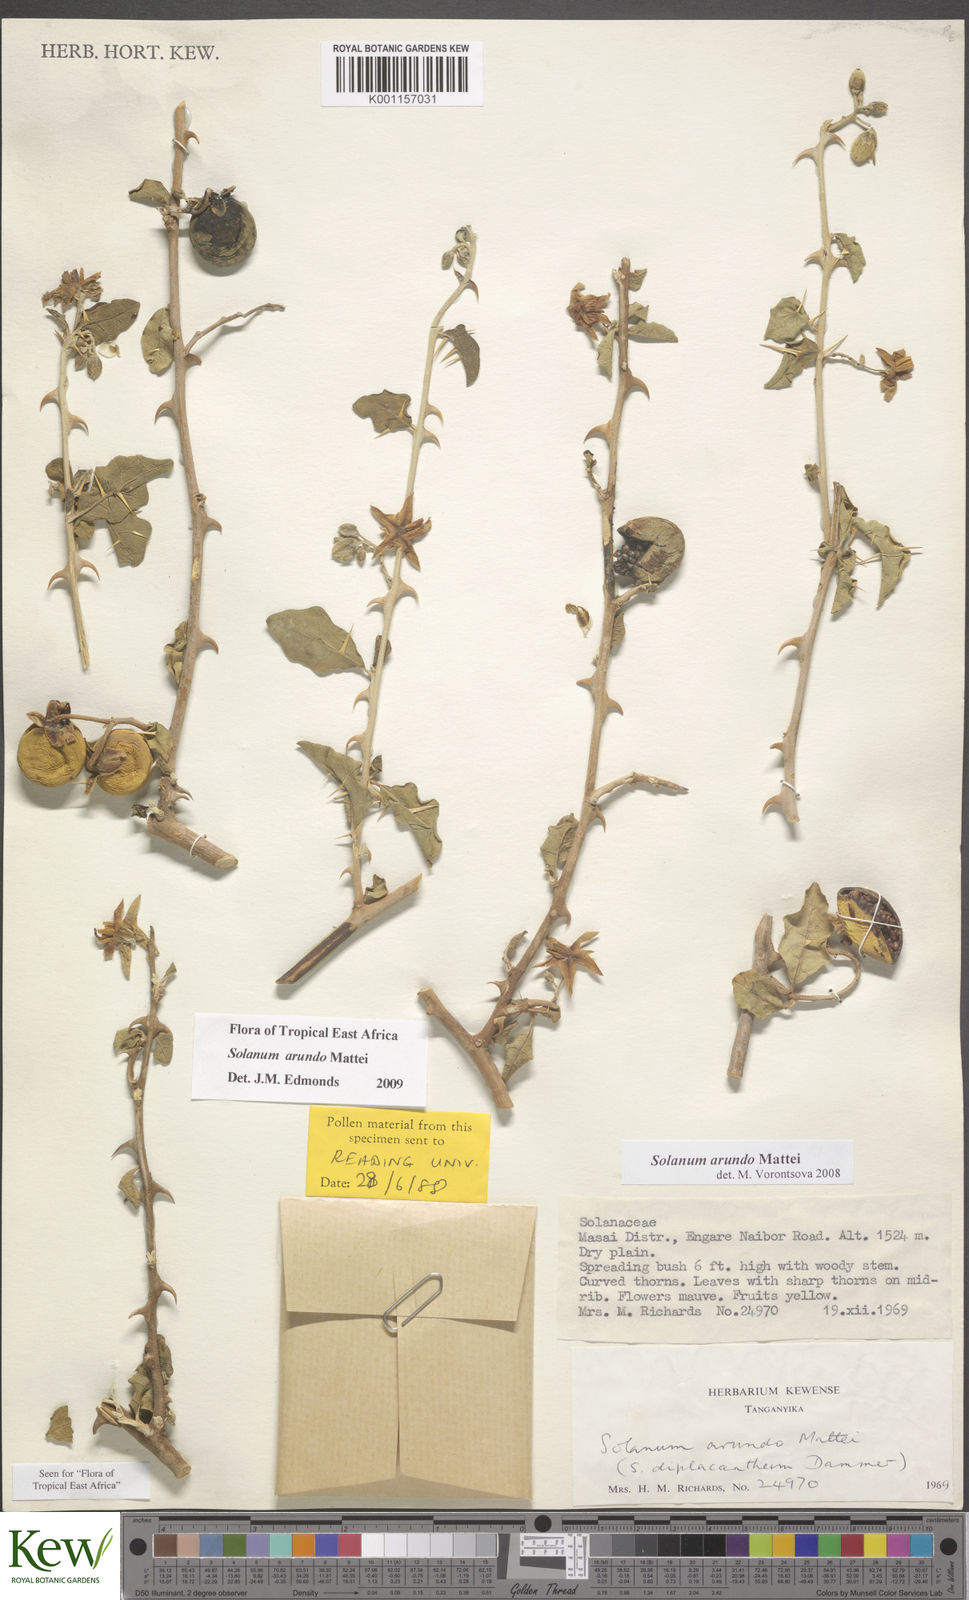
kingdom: Plantae
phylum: Tracheophyta
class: Magnoliopsida
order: Solanales
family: Solanaceae
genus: Solanum
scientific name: Solanum arundo
